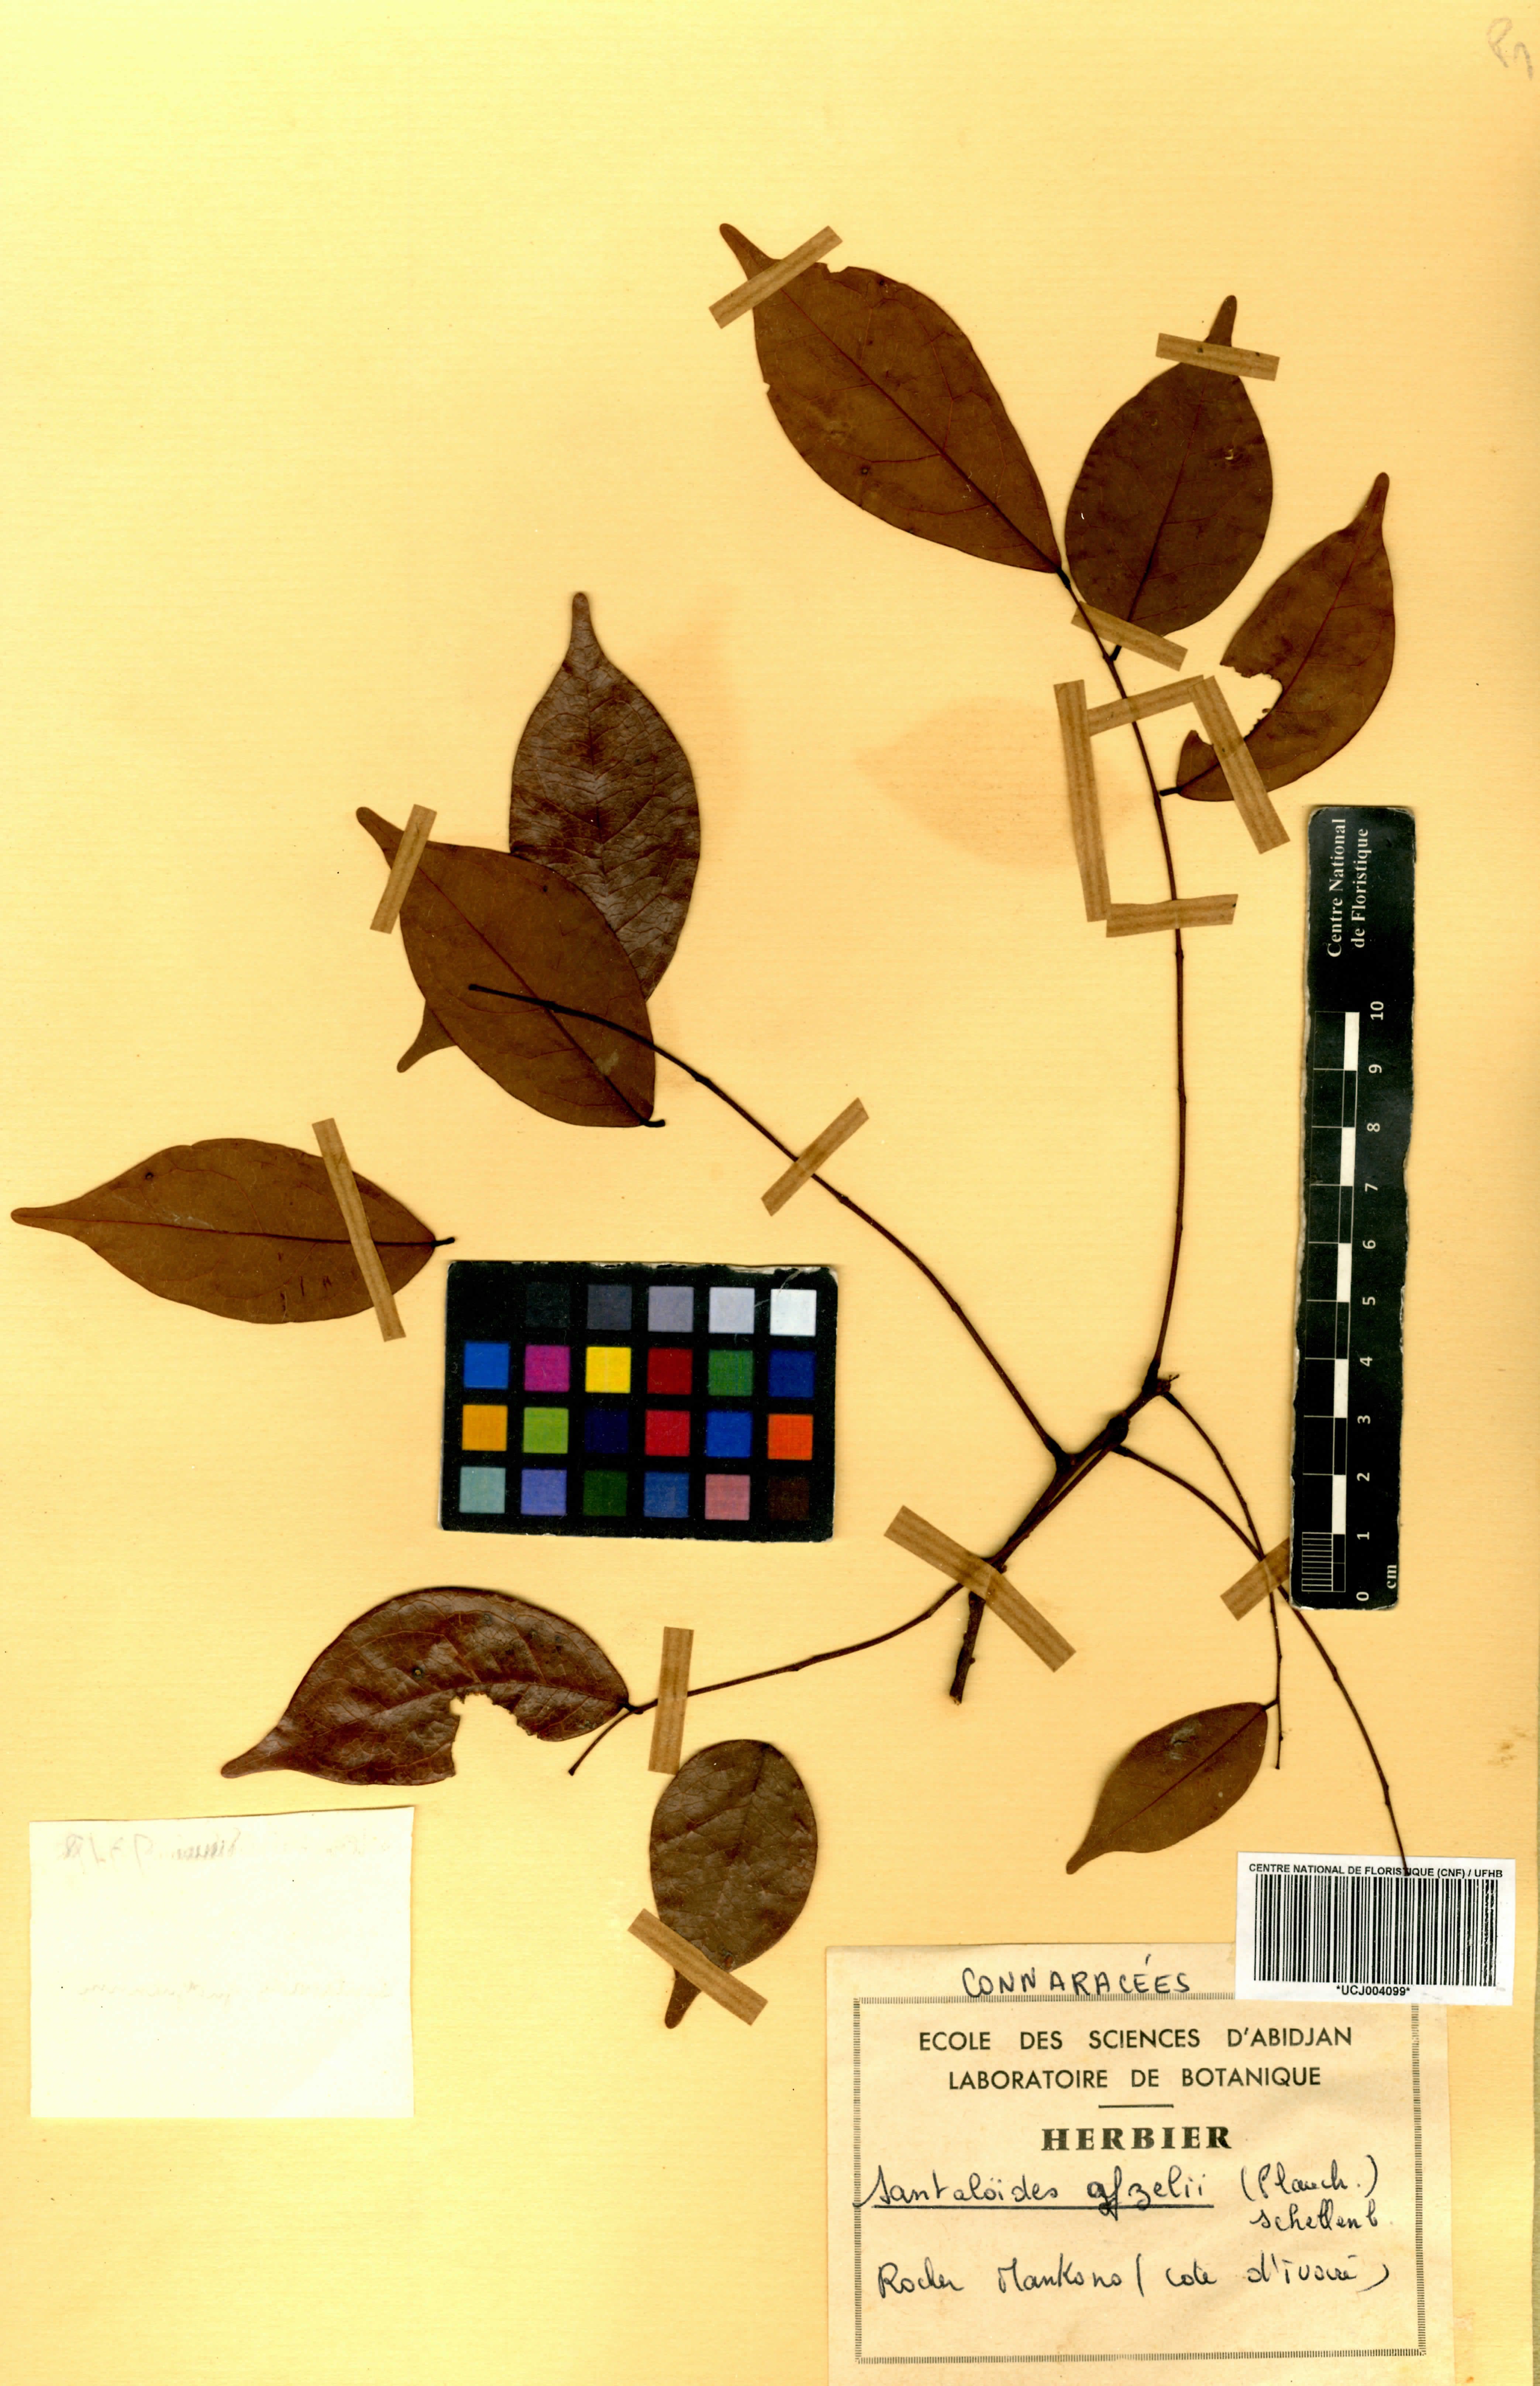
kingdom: Plantae
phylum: Tracheophyta
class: Magnoliopsida
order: Oxalidales
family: Connaraceae
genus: Rourea
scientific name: Rourea minor
